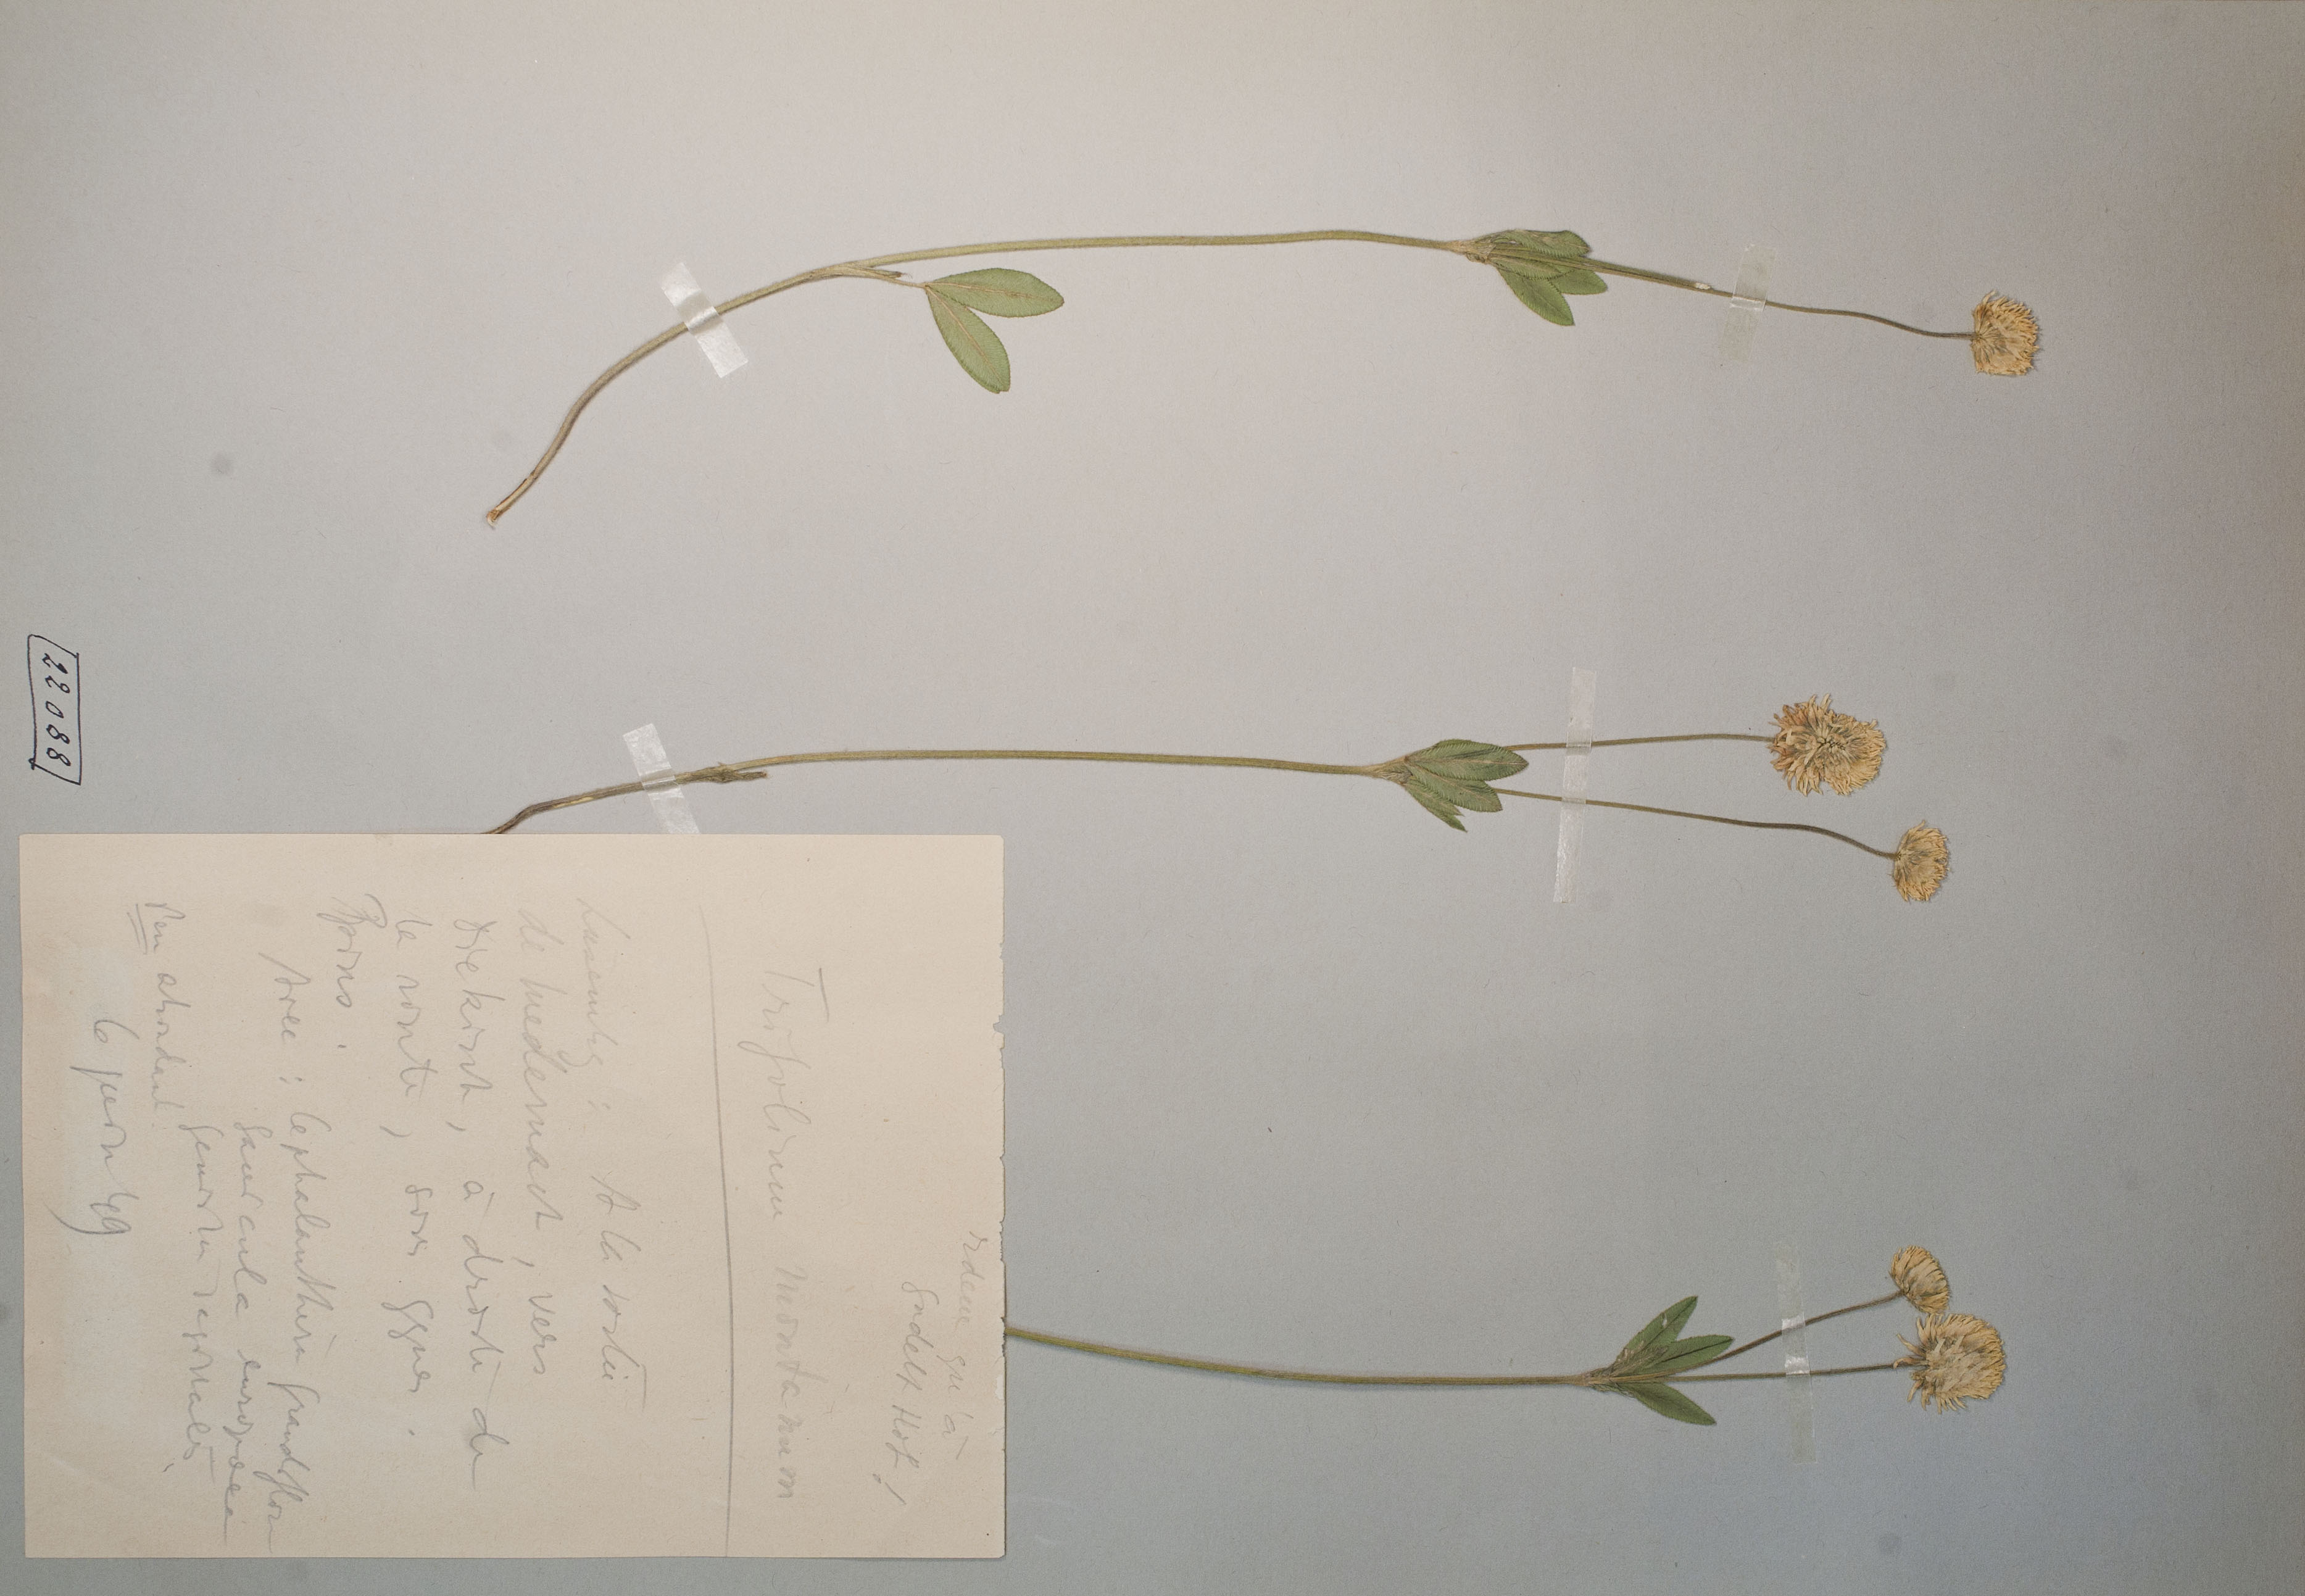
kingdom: Plantae
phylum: Tracheophyta
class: Magnoliopsida
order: Fabales
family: Fabaceae
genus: Trifolium
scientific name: Trifolium montanum
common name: Mountain clover
